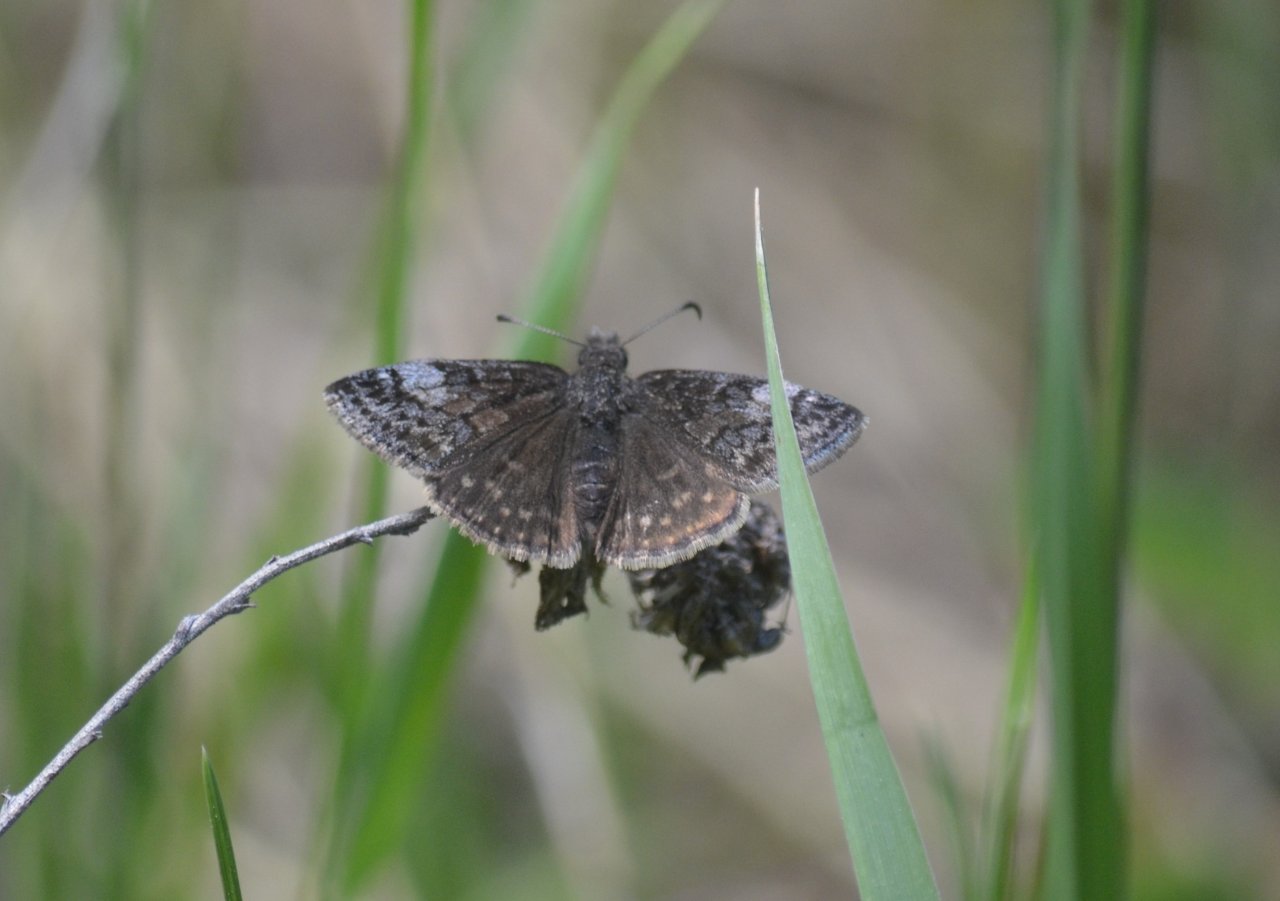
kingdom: Animalia
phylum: Arthropoda
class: Insecta
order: Lepidoptera
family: Hesperiidae
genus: Erynnis
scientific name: Erynnis icelus
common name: Dreamy Duskywing
